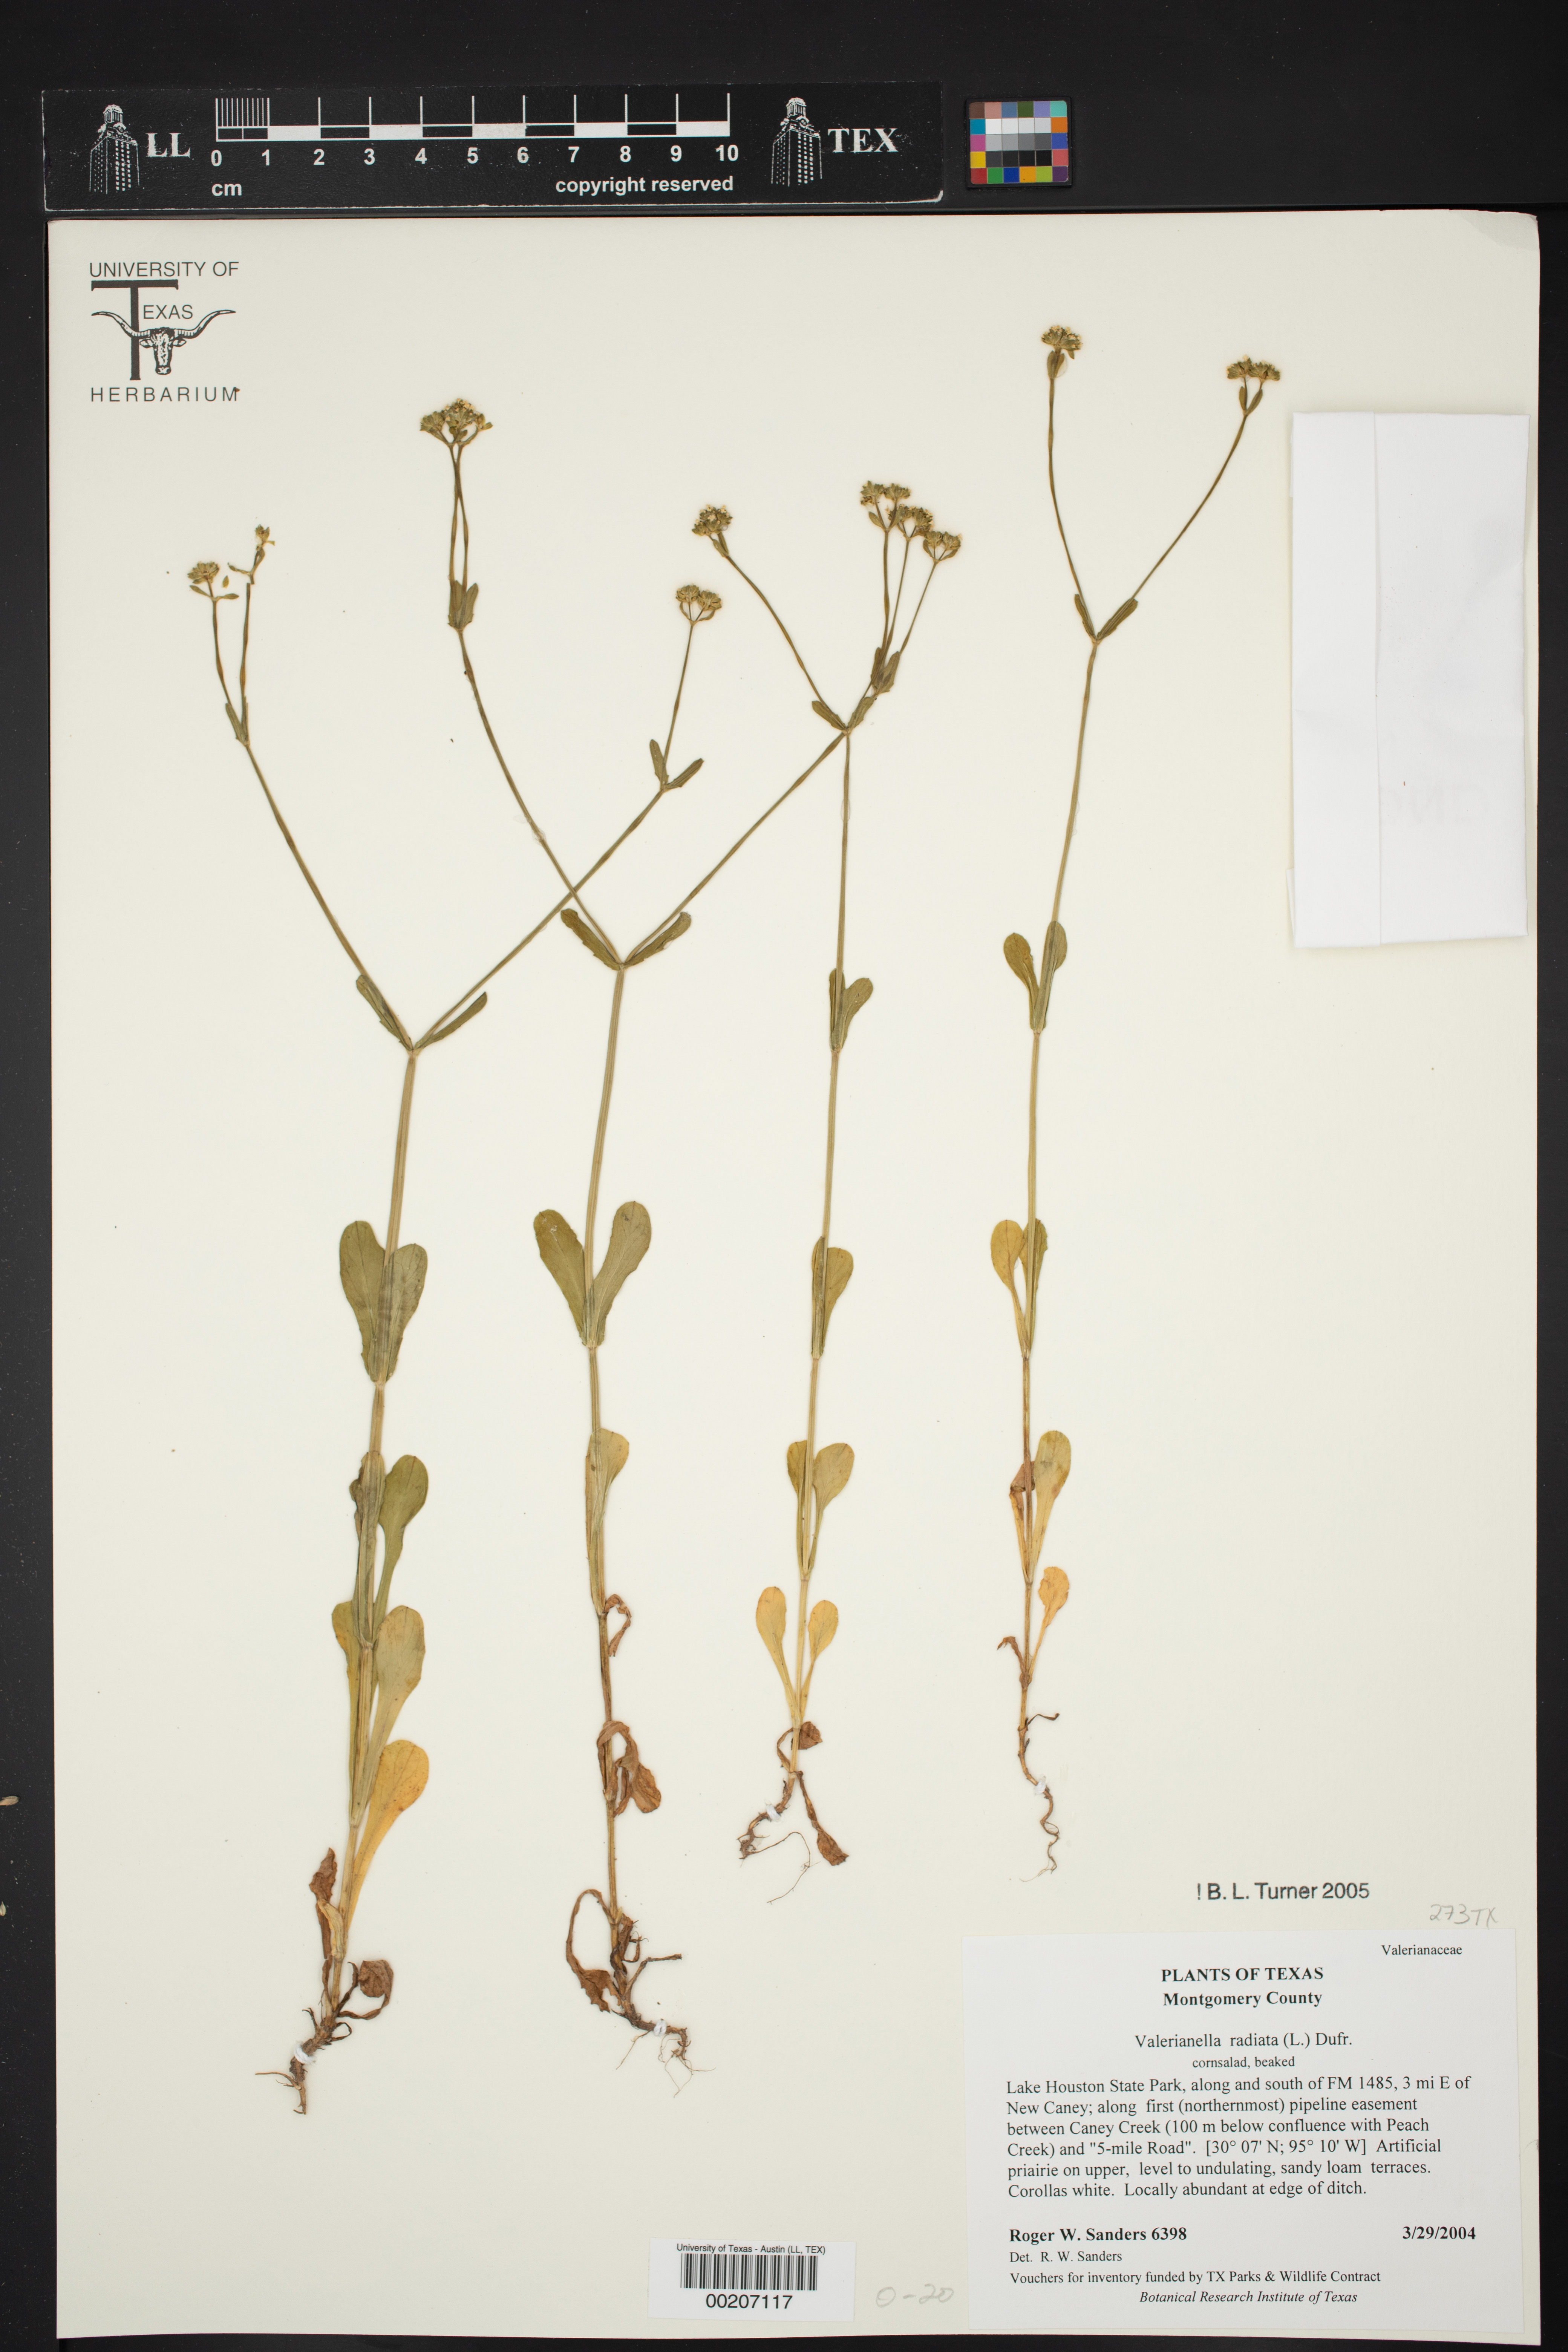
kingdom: Plantae
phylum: Tracheophyta
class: Magnoliopsida
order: Dipsacales
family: Caprifoliaceae
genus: Valerianella
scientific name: Valerianella radiata
